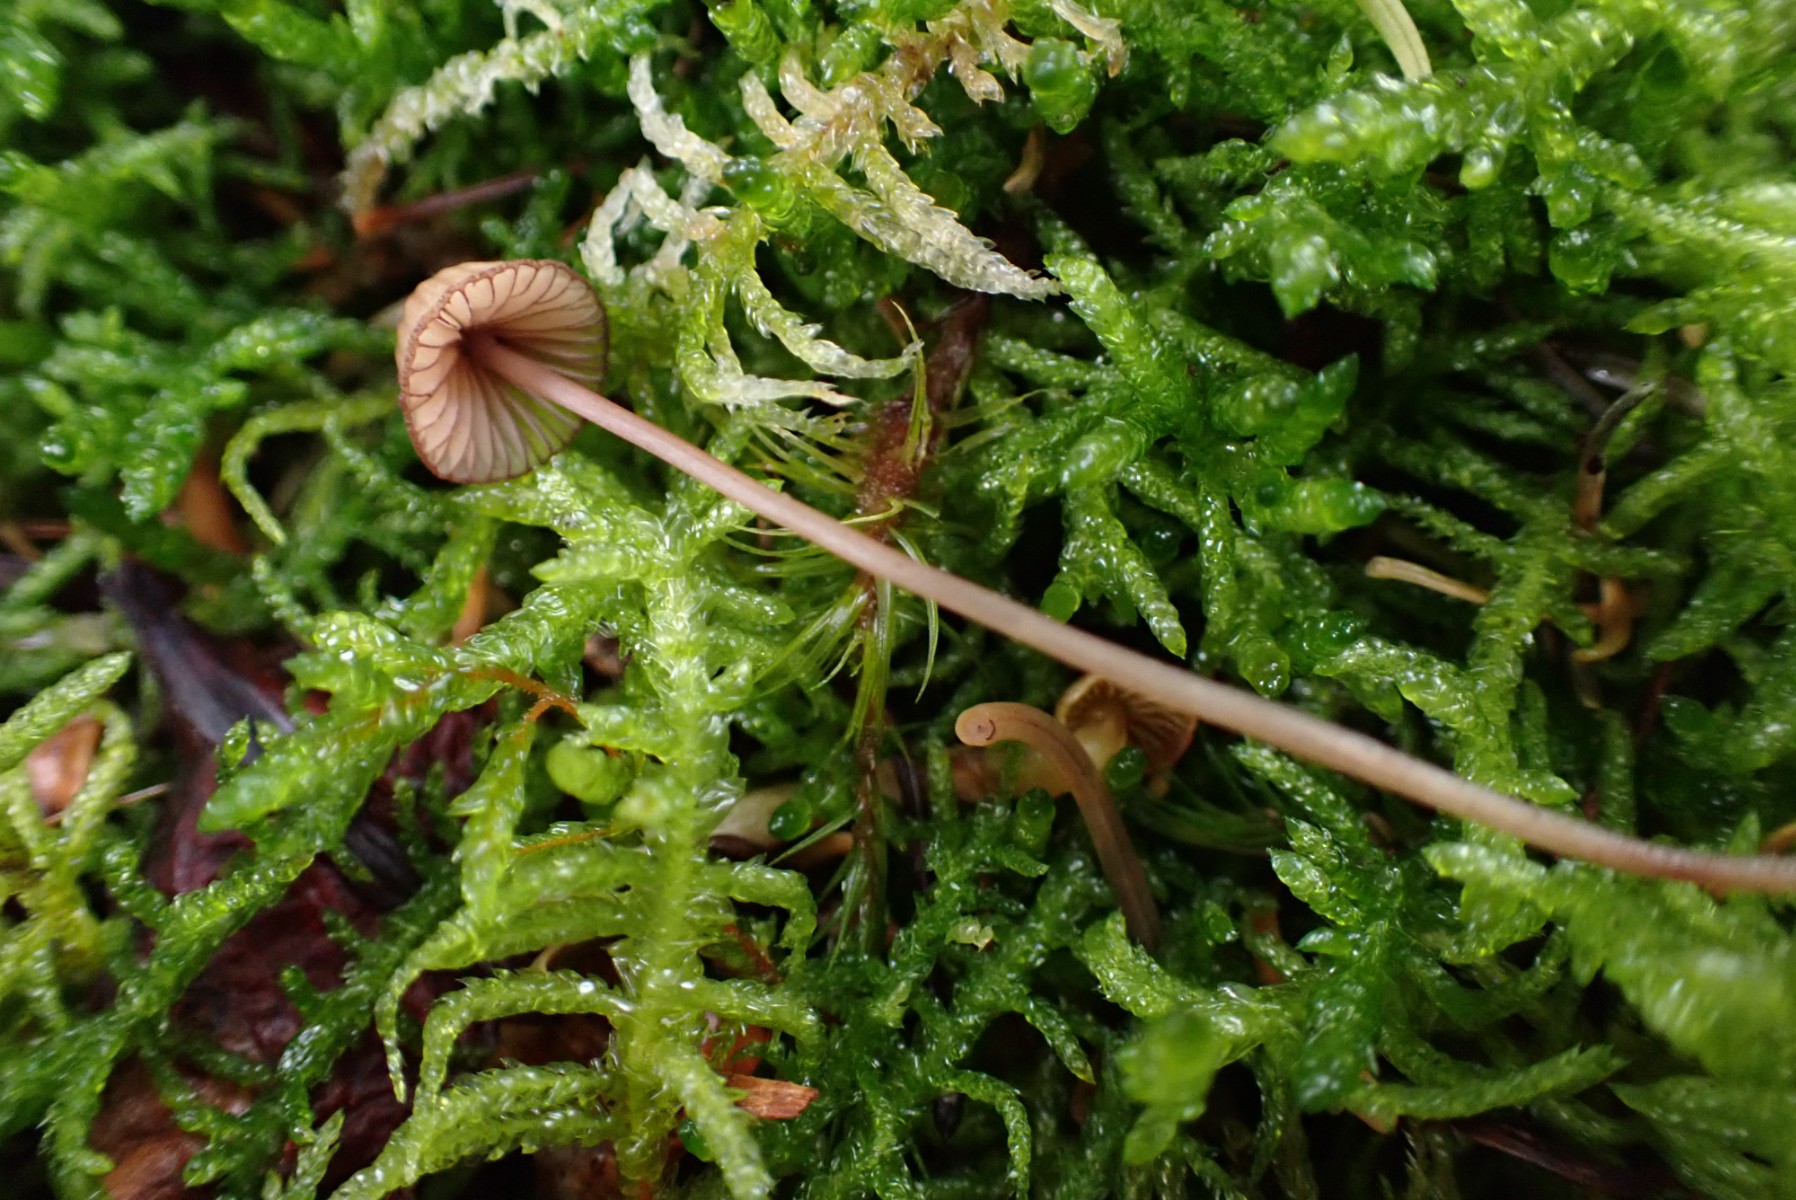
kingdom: Fungi
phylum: Basidiomycota
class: Agaricomycetes
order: Agaricales
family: Mycenaceae
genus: Mycena
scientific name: Mycena sanguinolenta
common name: rødmælket huesvamp
